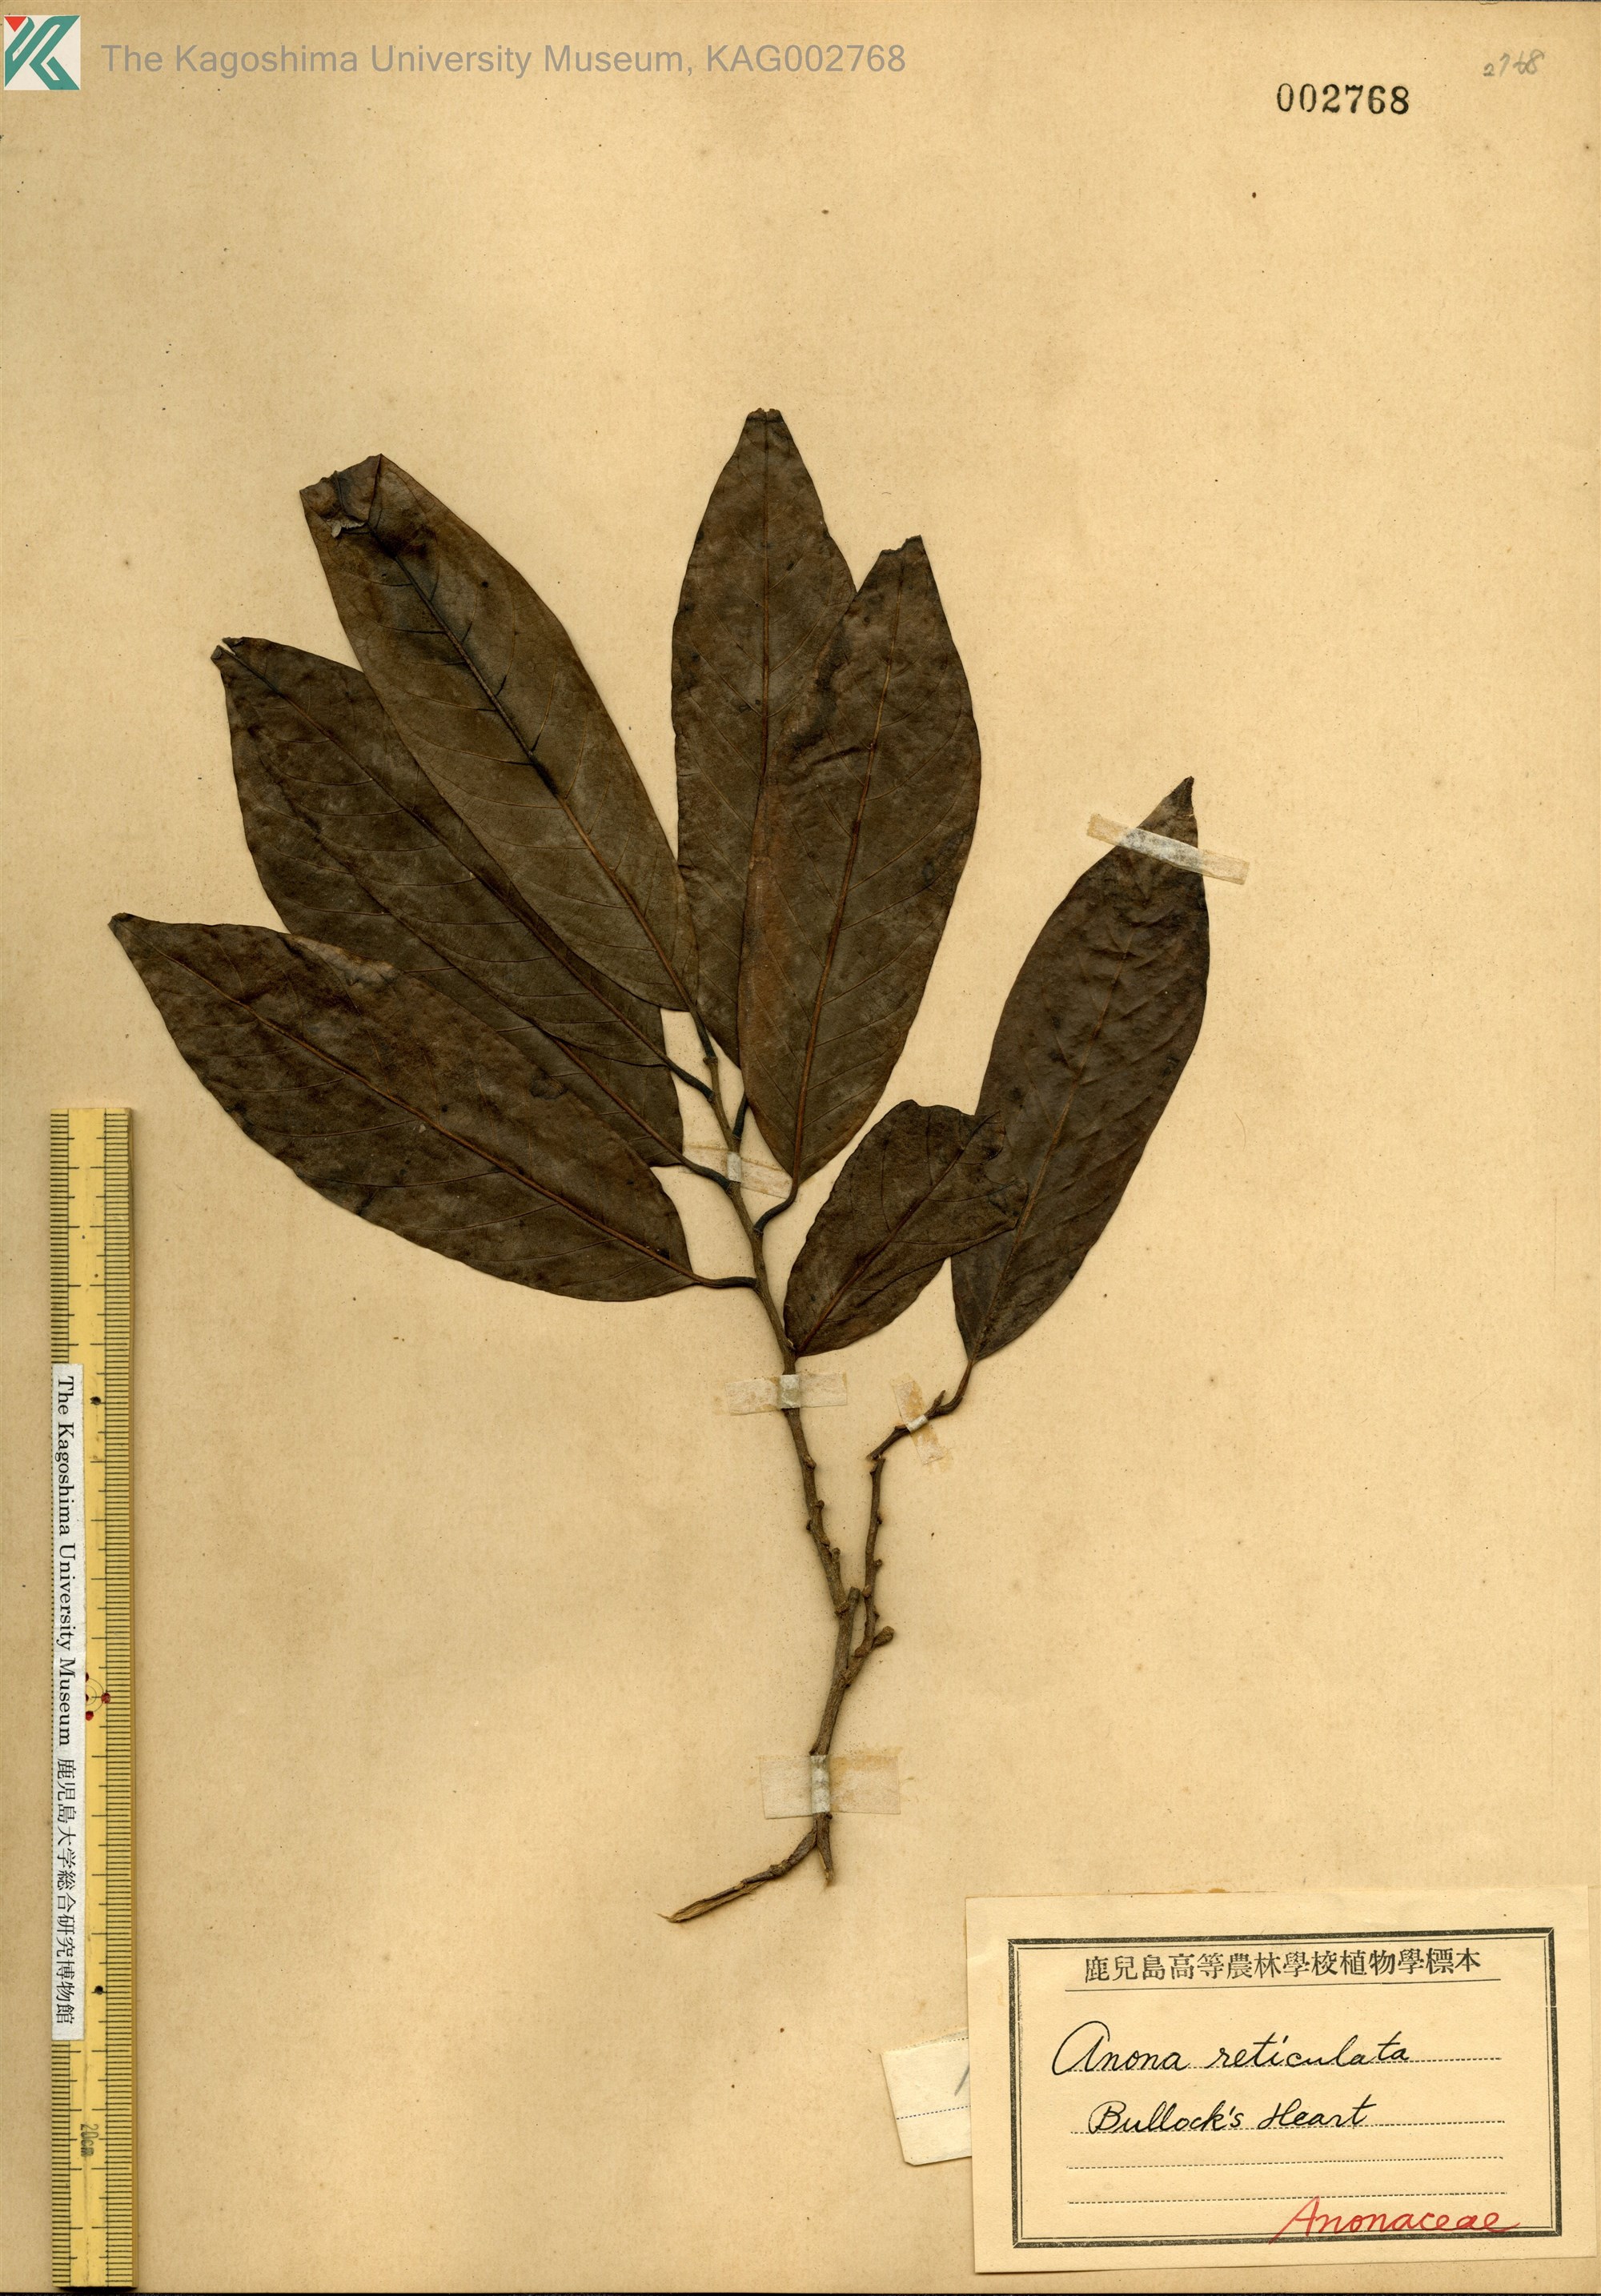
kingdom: Plantae
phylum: Tracheophyta
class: Magnoliopsida
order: Magnoliales
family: Annonaceae
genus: Annona
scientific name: Annona reticulata
